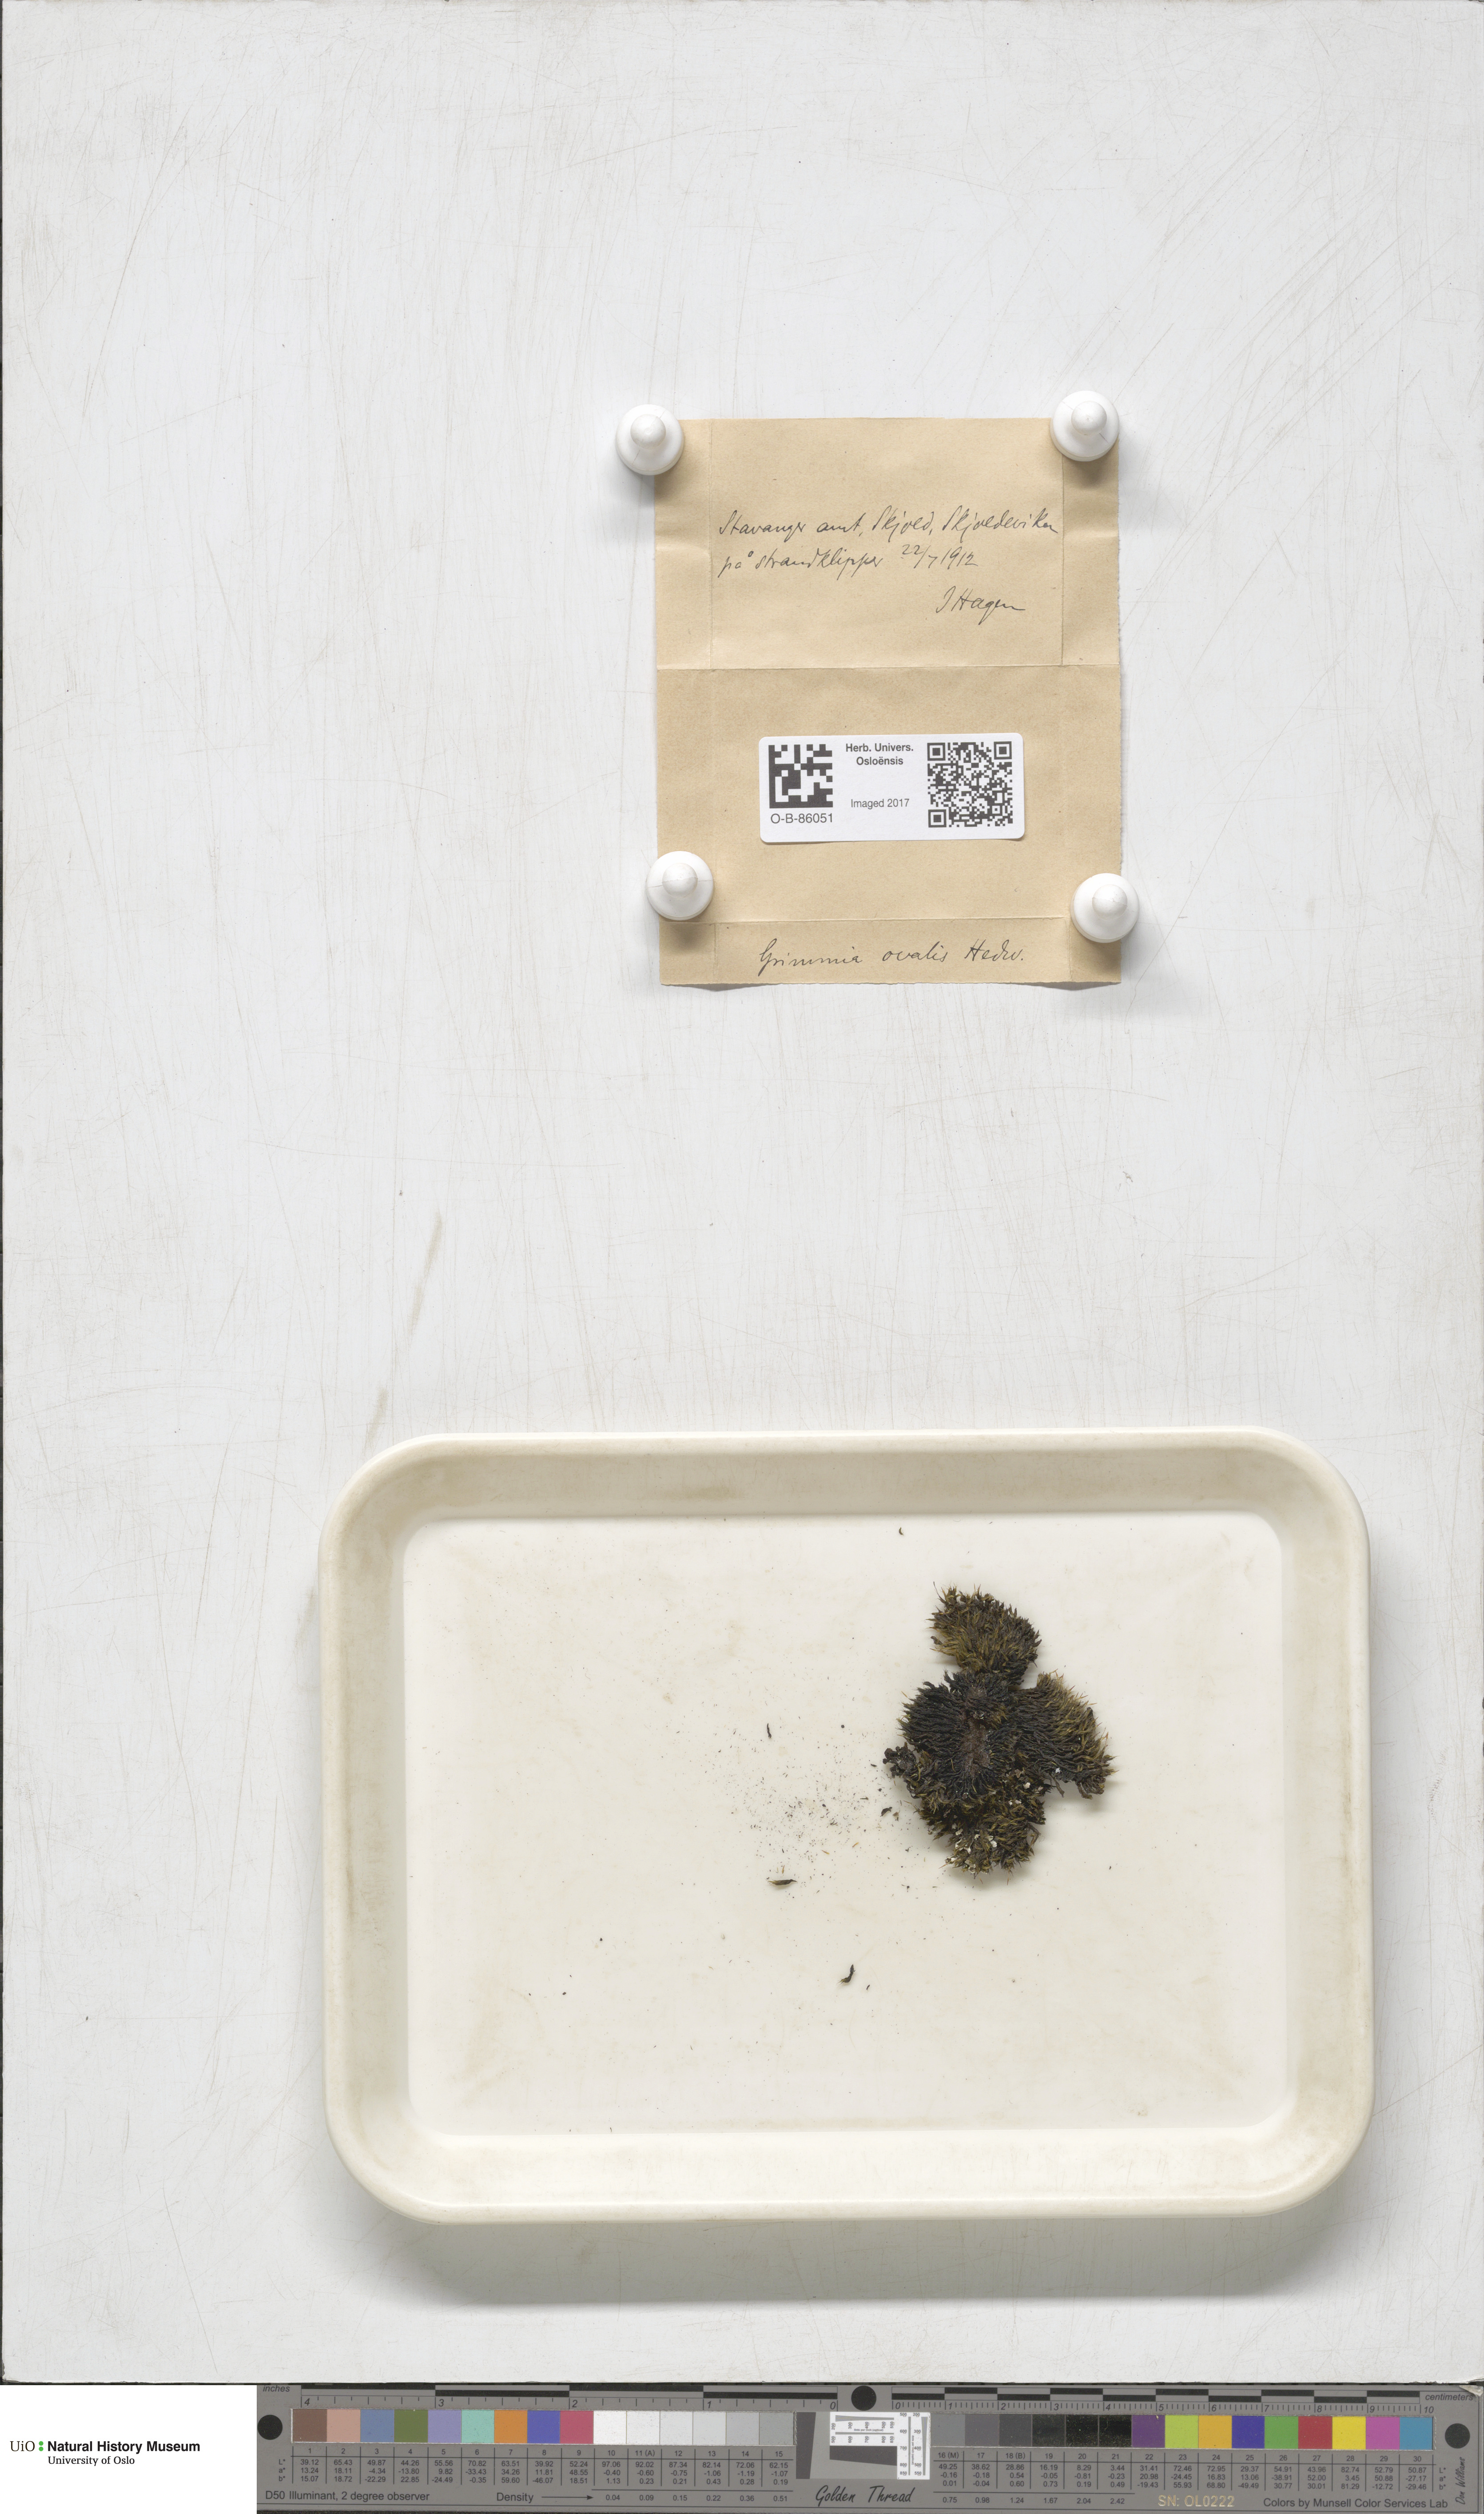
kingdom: Plantae
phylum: Bryophyta
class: Bryopsida
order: Grimmiales
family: Grimmiaceae
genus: Grimmia
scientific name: Grimmia ovalis
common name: Oval grimmia
